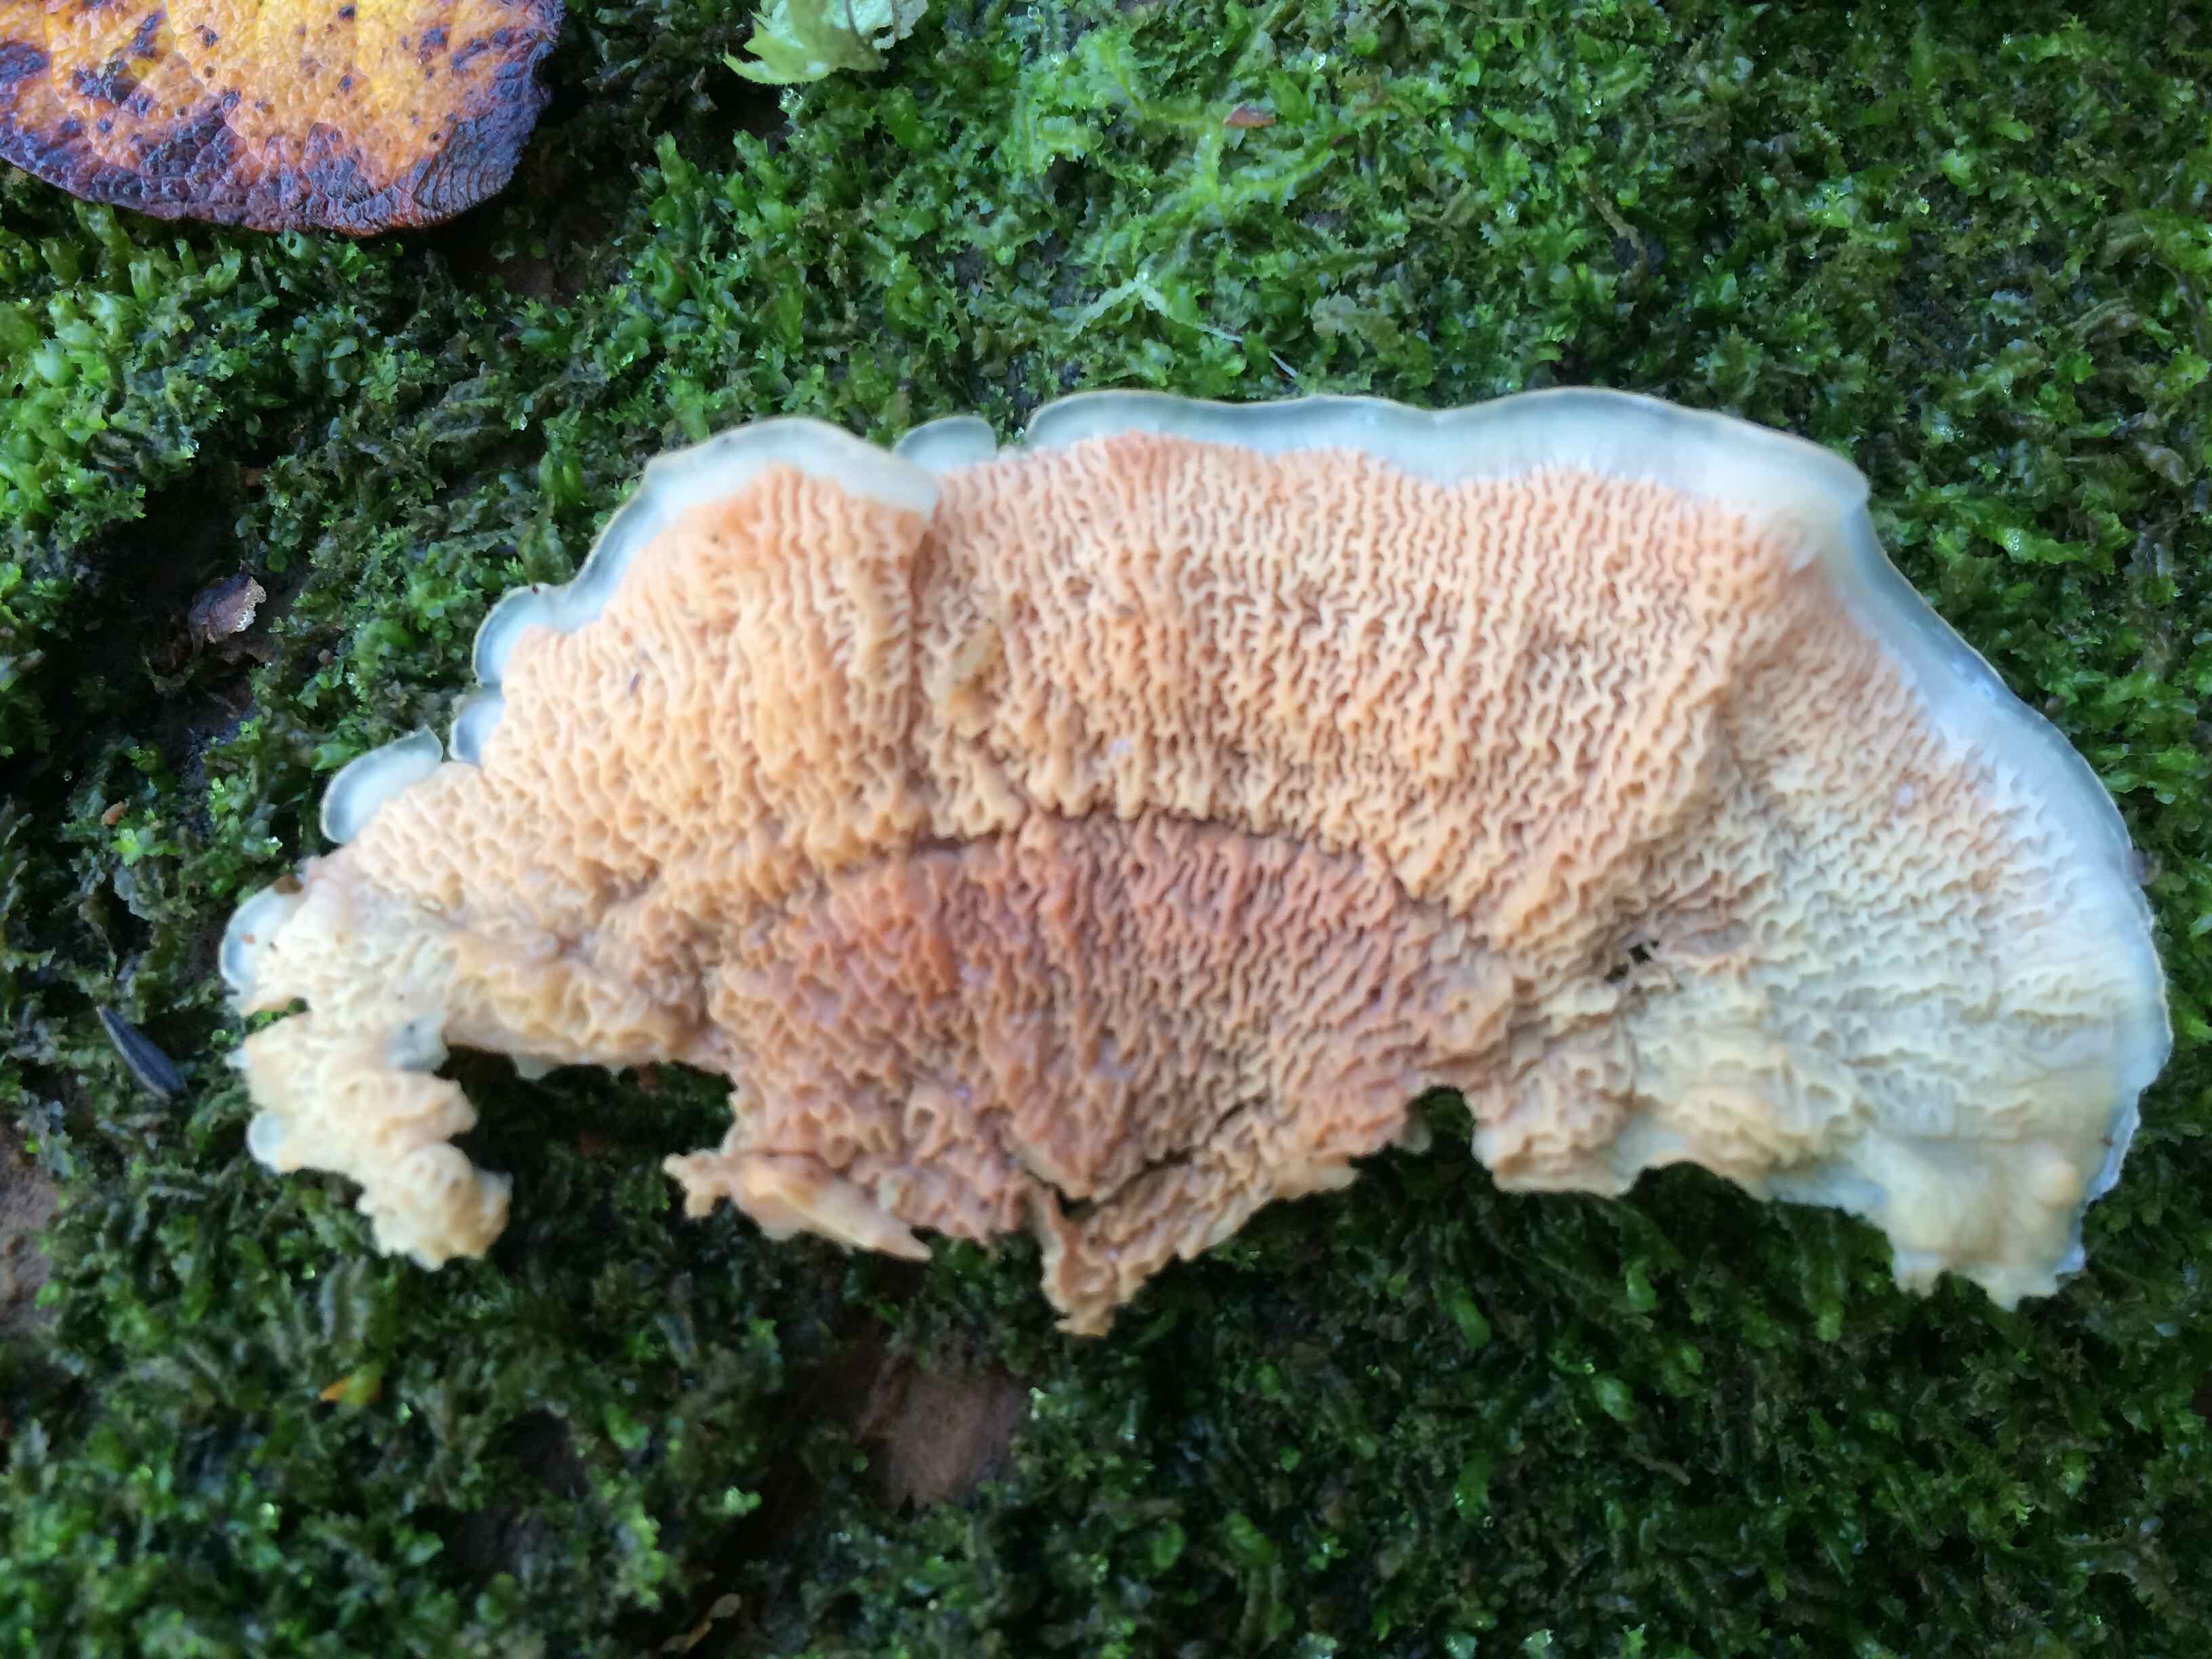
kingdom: Fungi
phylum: Basidiomycota
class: Agaricomycetes
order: Polyporales
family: Meruliaceae
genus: Phlebia
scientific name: Phlebia tremellosa
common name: bævrende åresvamp
